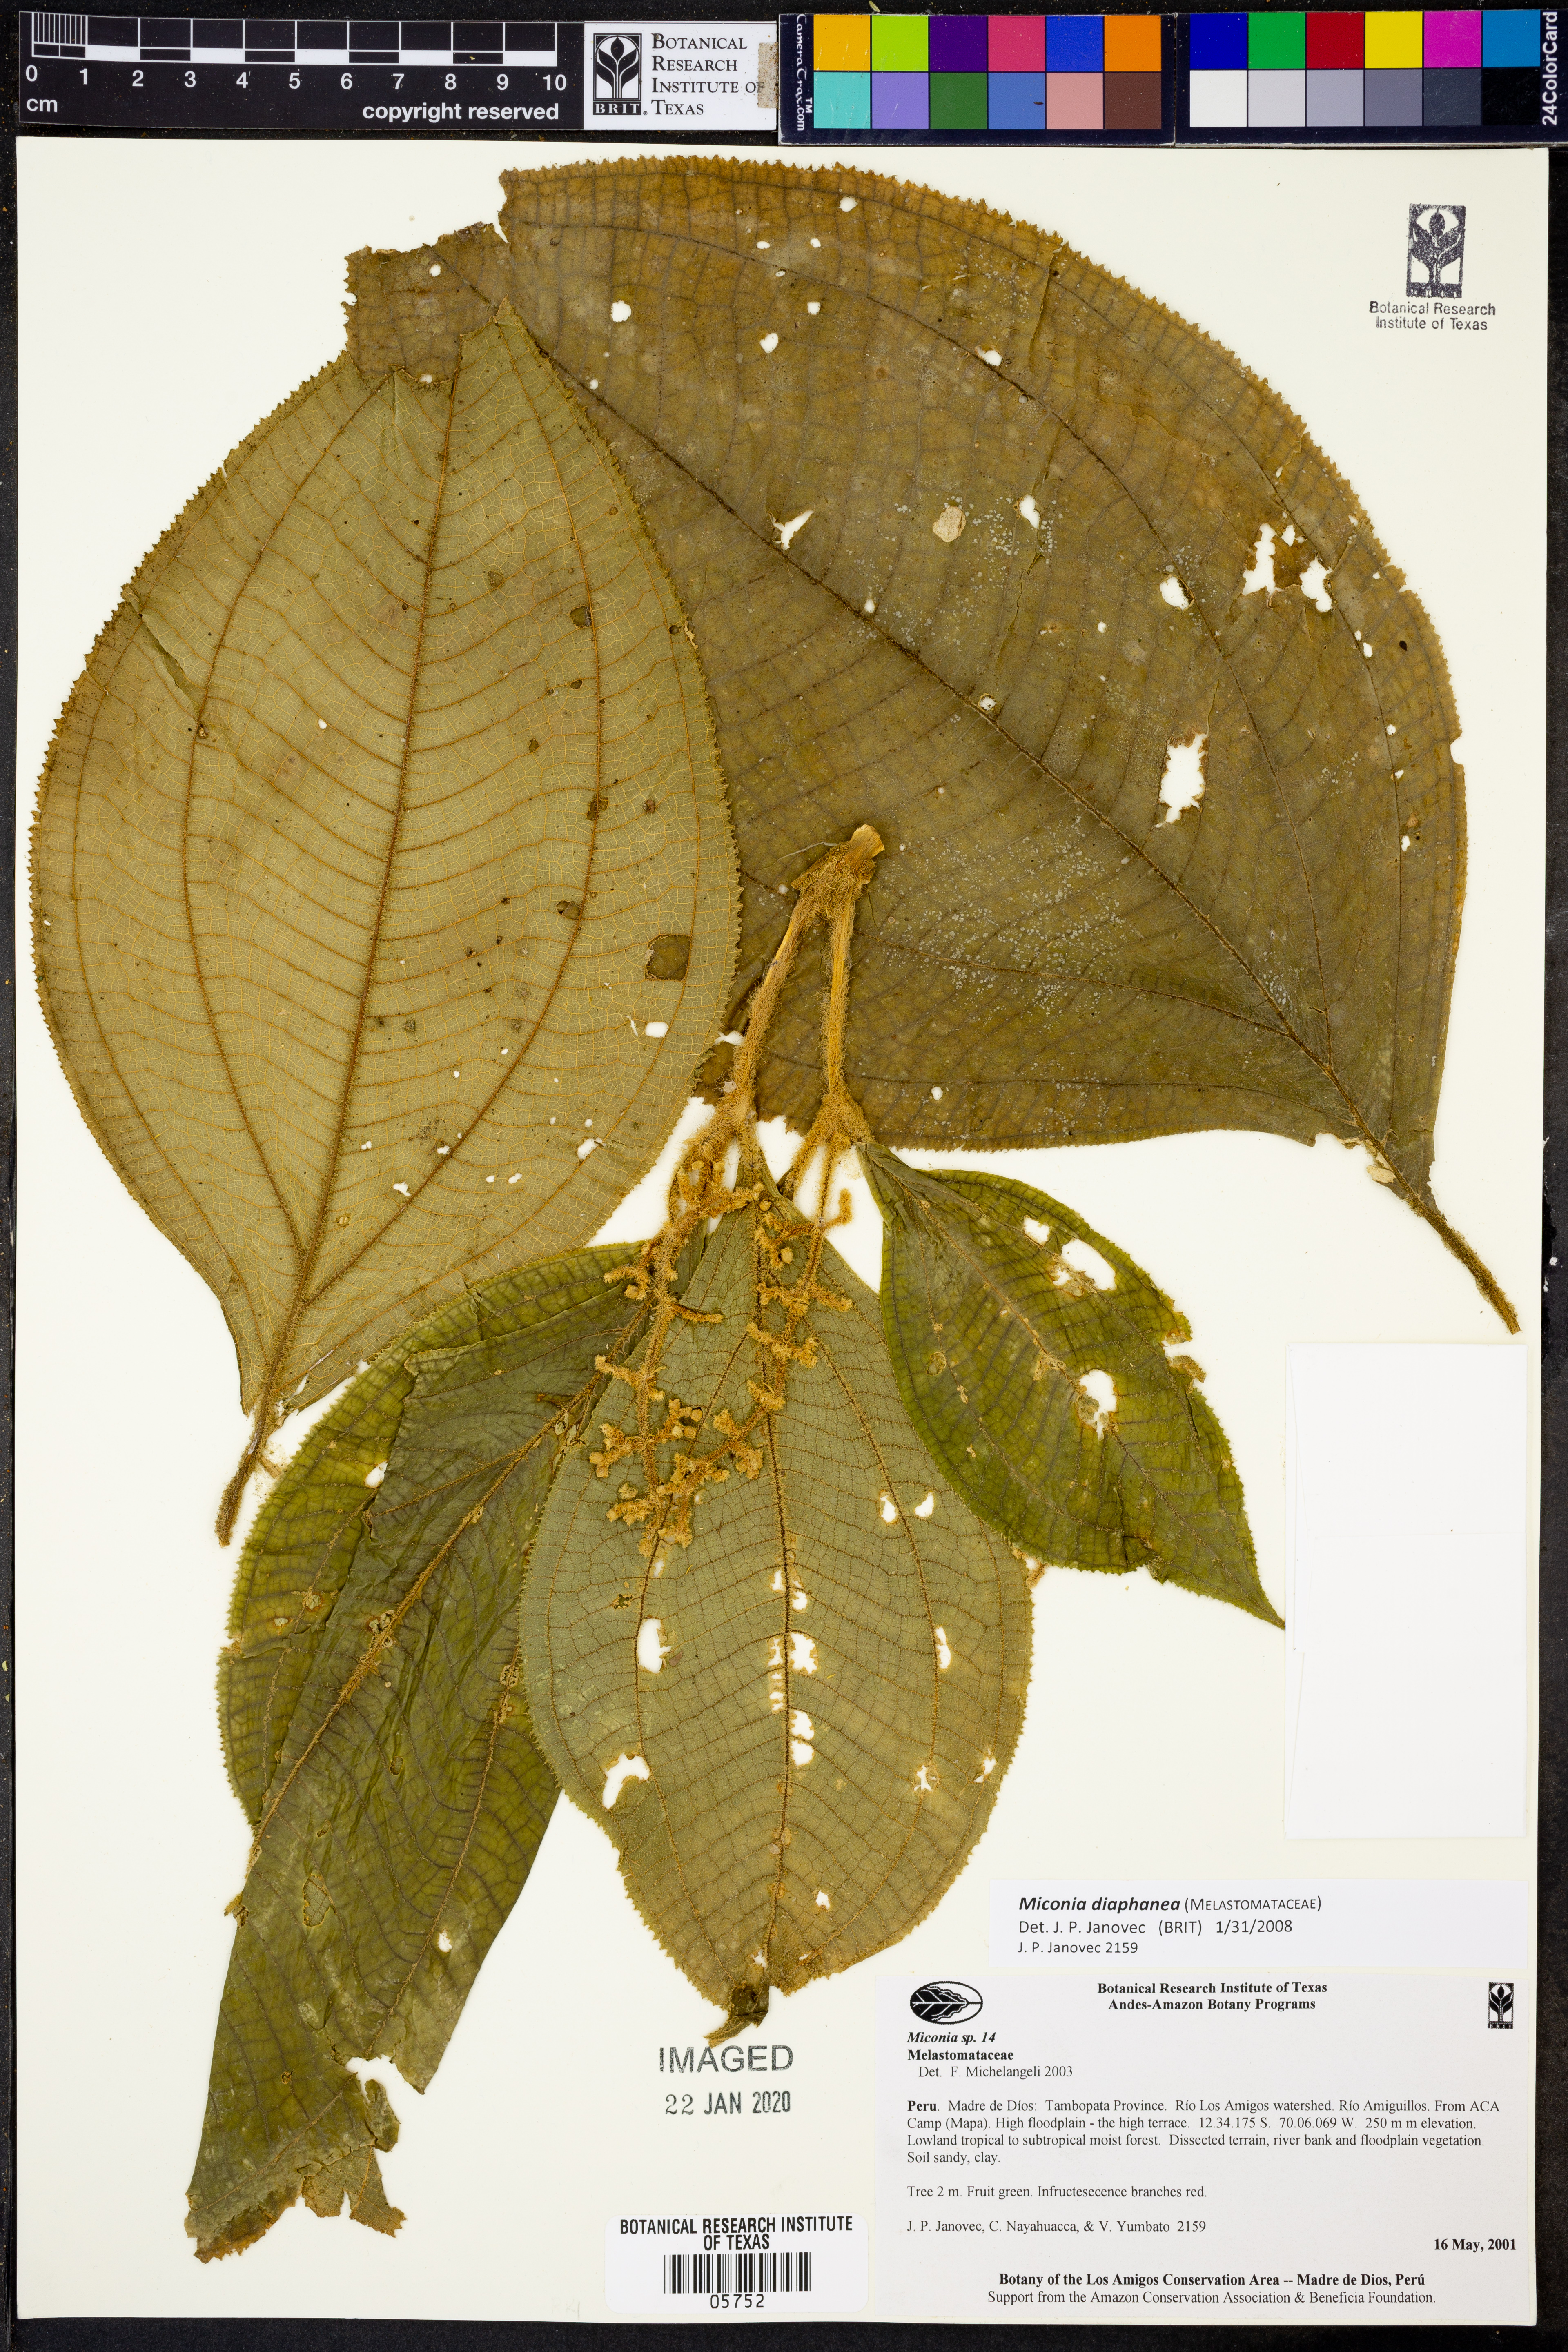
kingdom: Plantae
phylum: Tracheophyta
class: Magnoliopsida
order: Myrtales
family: Melastomataceae
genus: Miconia
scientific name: Miconia diaphanea
